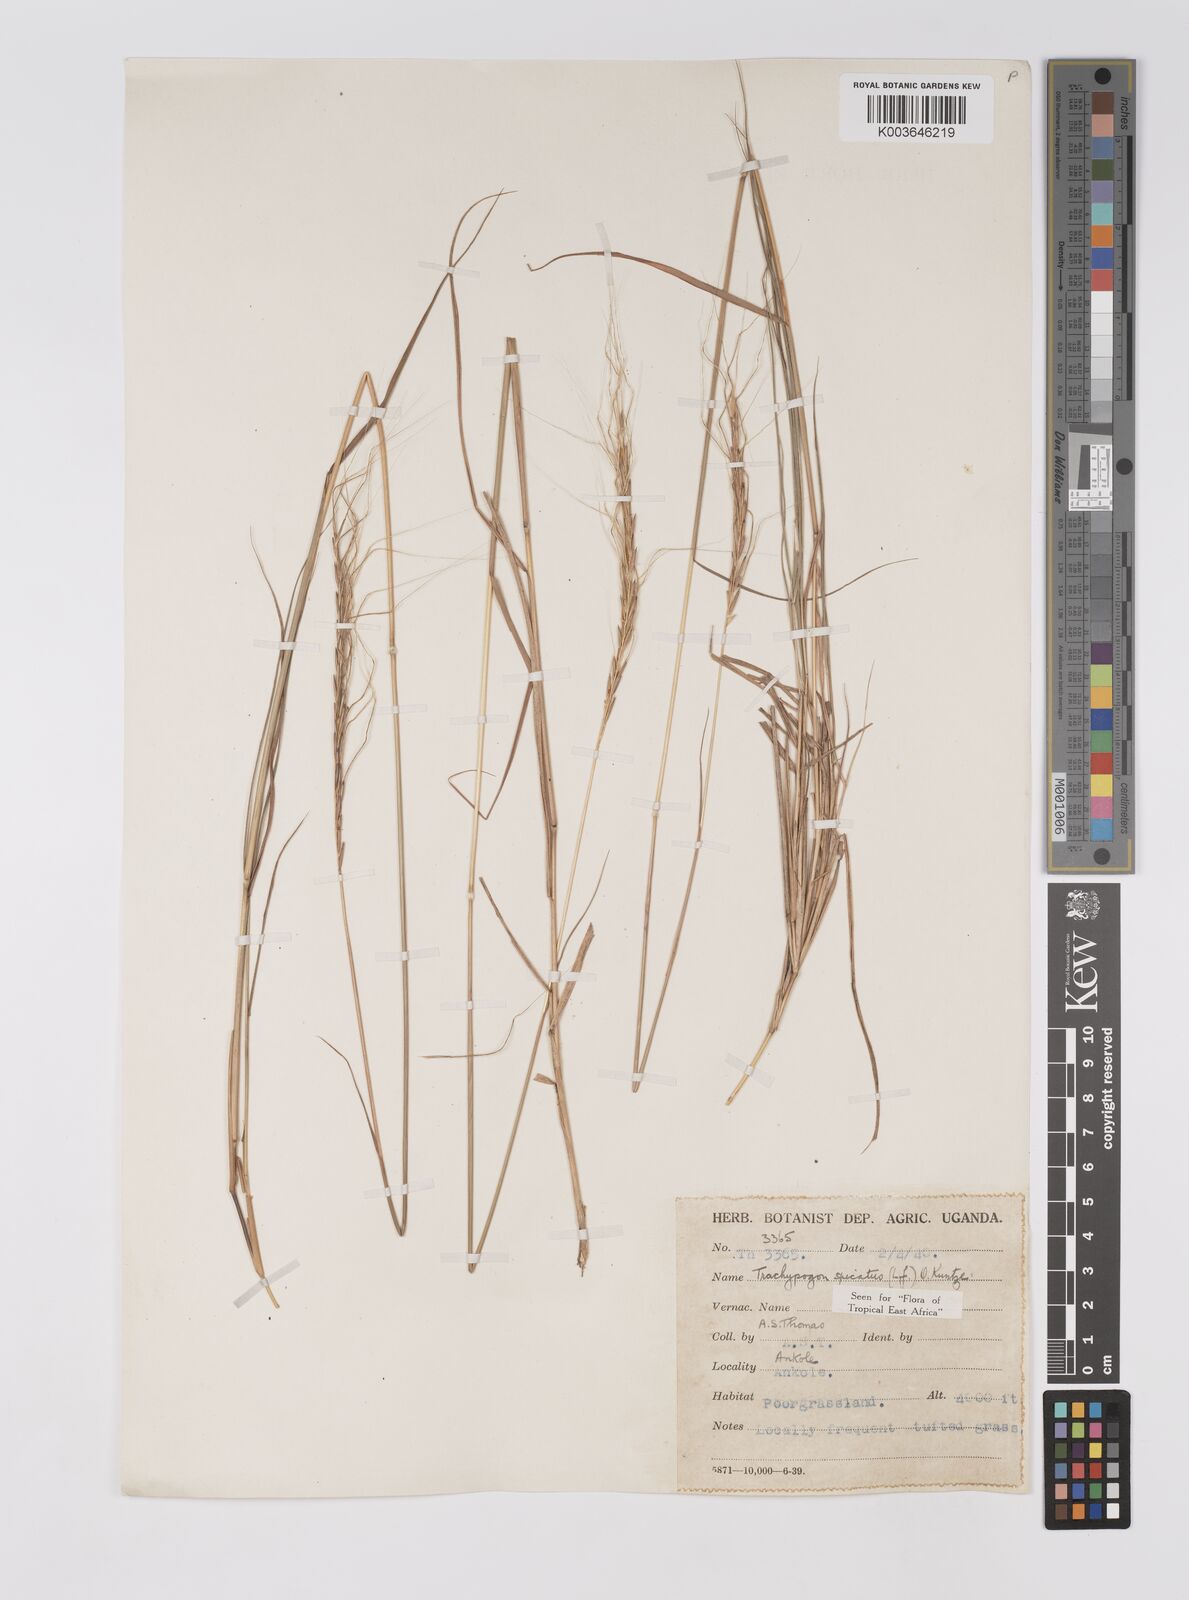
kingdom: Plantae
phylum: Tracheophyta
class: Liliopsida
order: Poales
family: Poaceae
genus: Trachypogon
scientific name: Trachypogon spicatus
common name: Crinkle-awn
